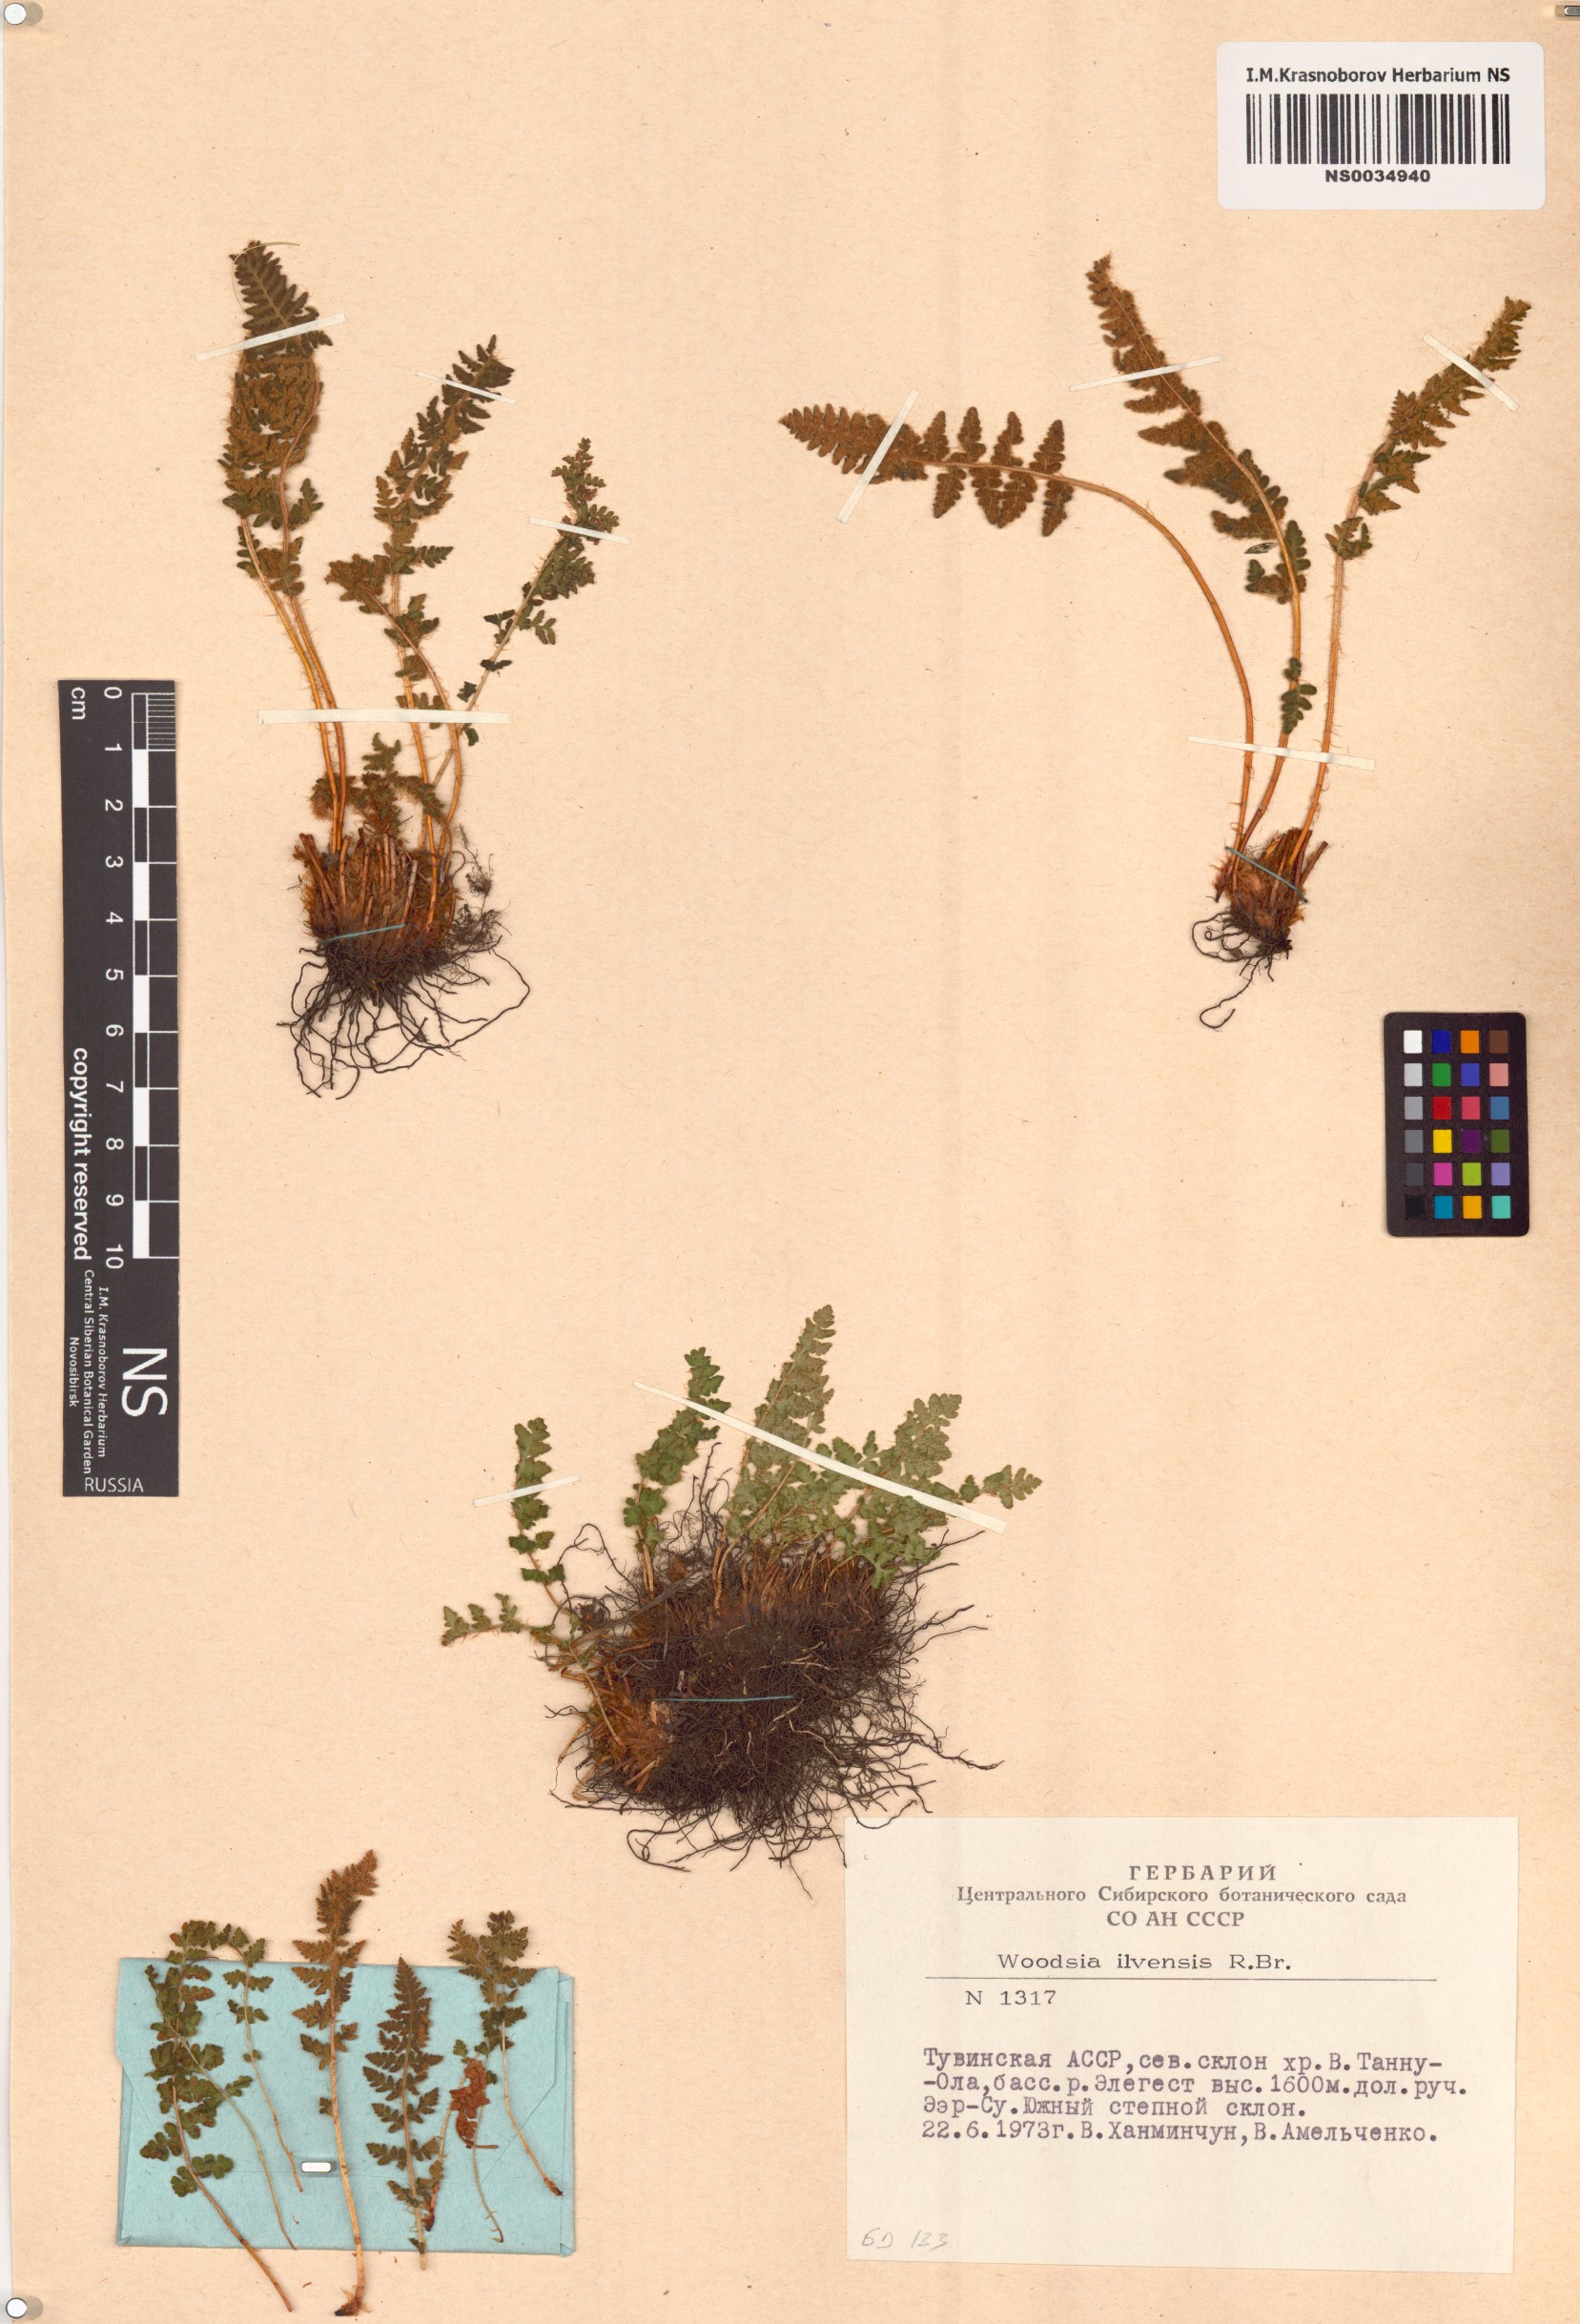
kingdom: Plantae
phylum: Tracheophyta
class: Polypodiopsida
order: Polypodiales
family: Woodsiaceae
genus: Woodsia
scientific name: Woodsia ilvensis
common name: Fragrant woodsia
